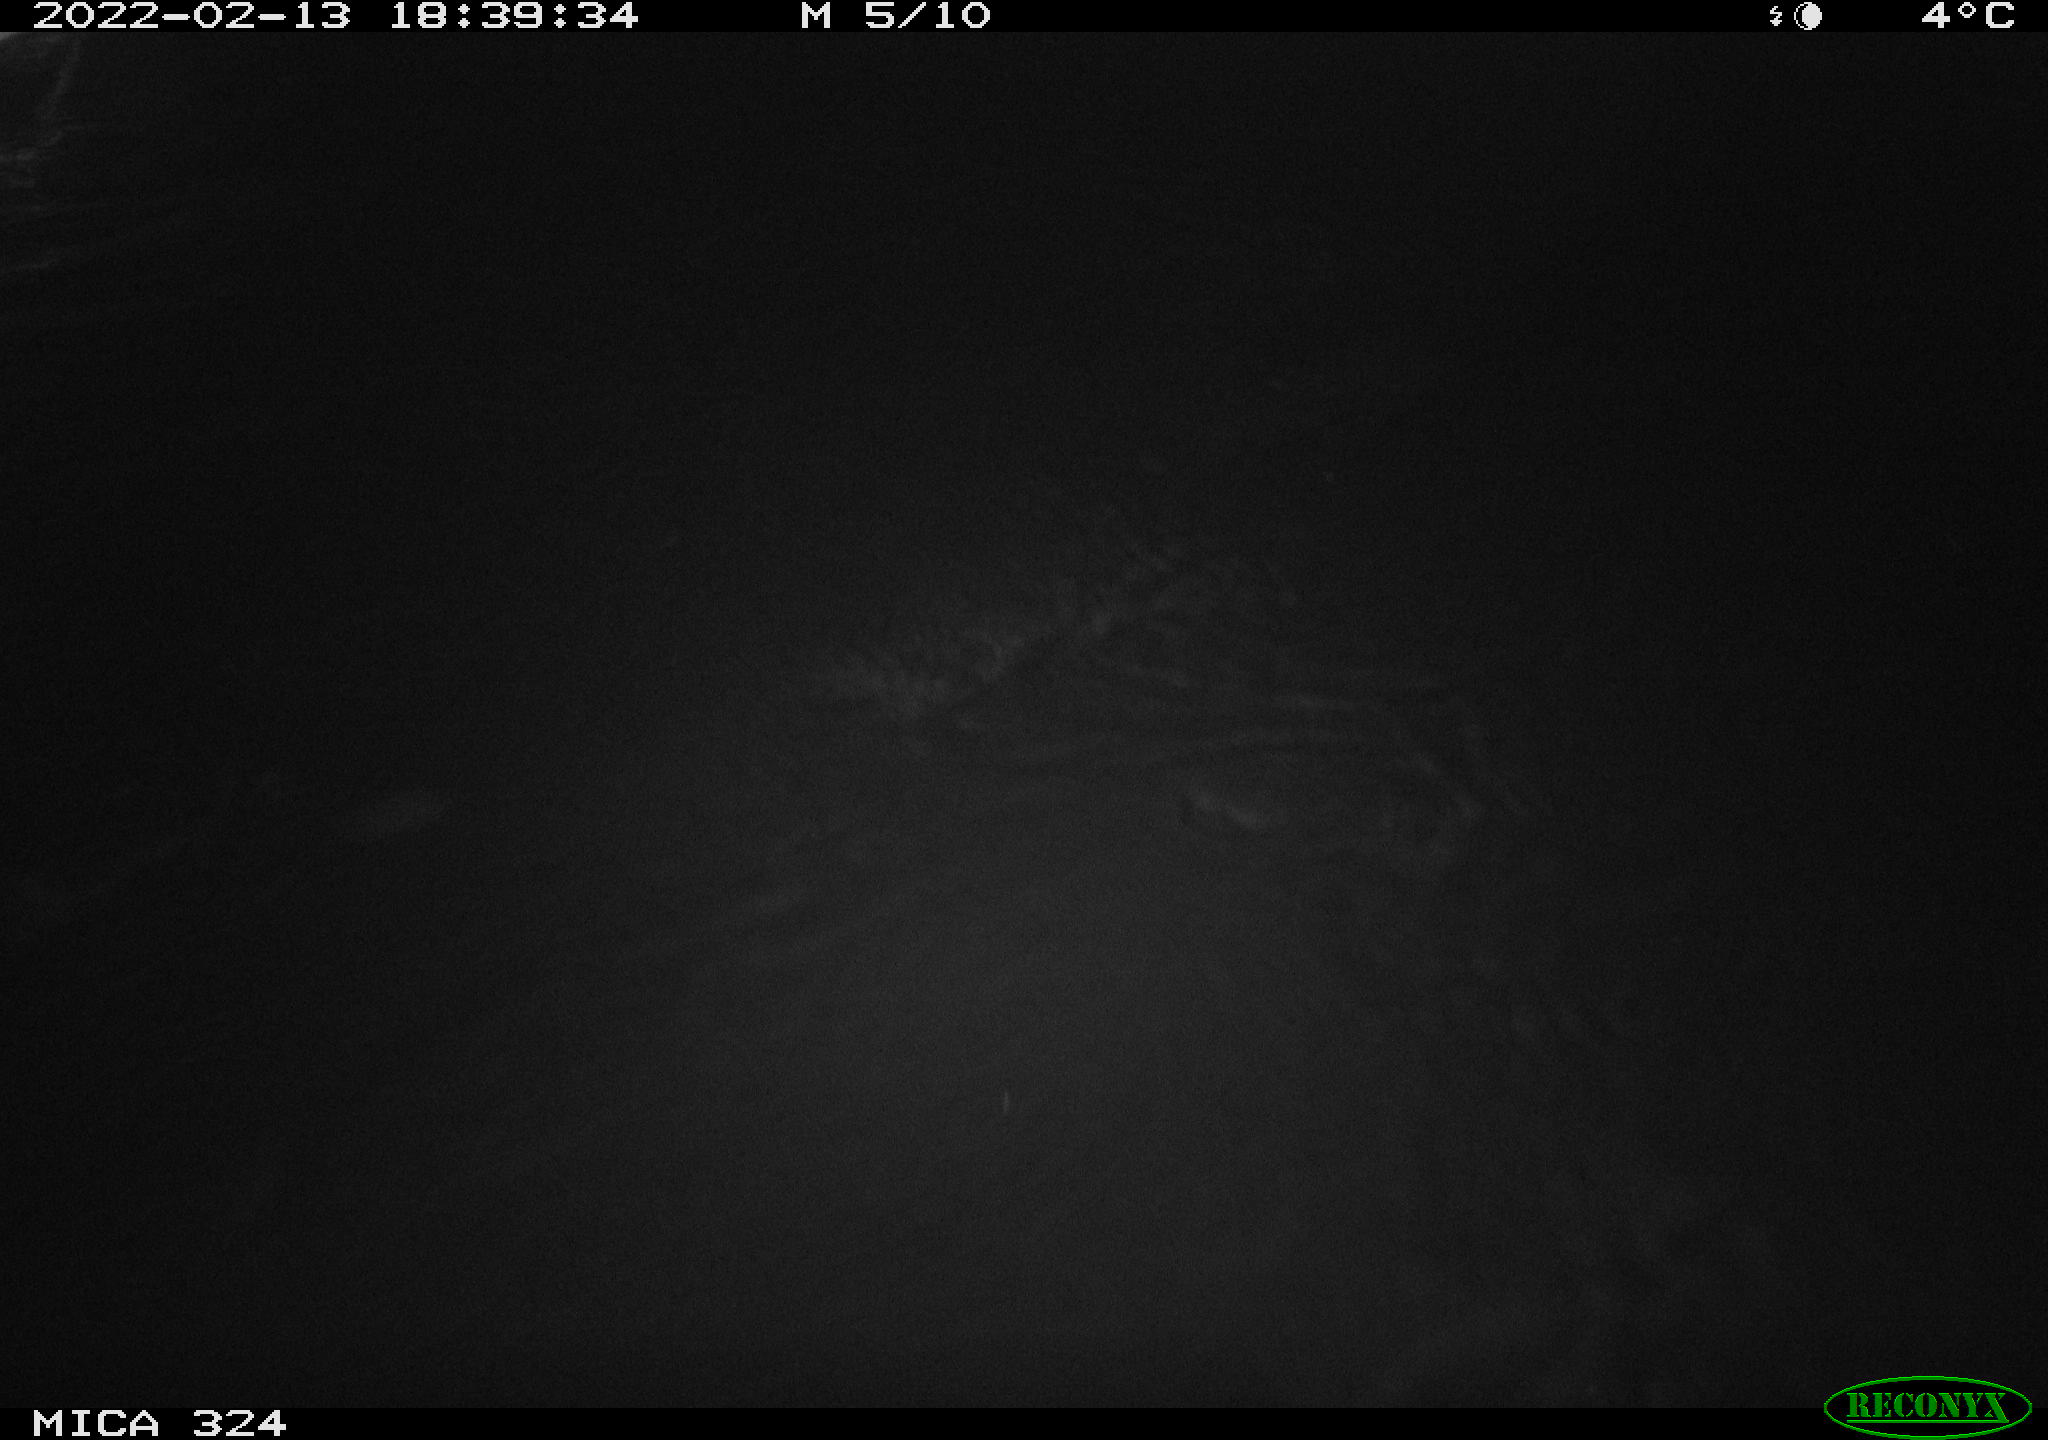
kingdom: Animalia
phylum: Chordata
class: Mammalia
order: Rodentia
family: Cricetidae
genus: Ondatra
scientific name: Ondatra zibethicus
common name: Muskrat
